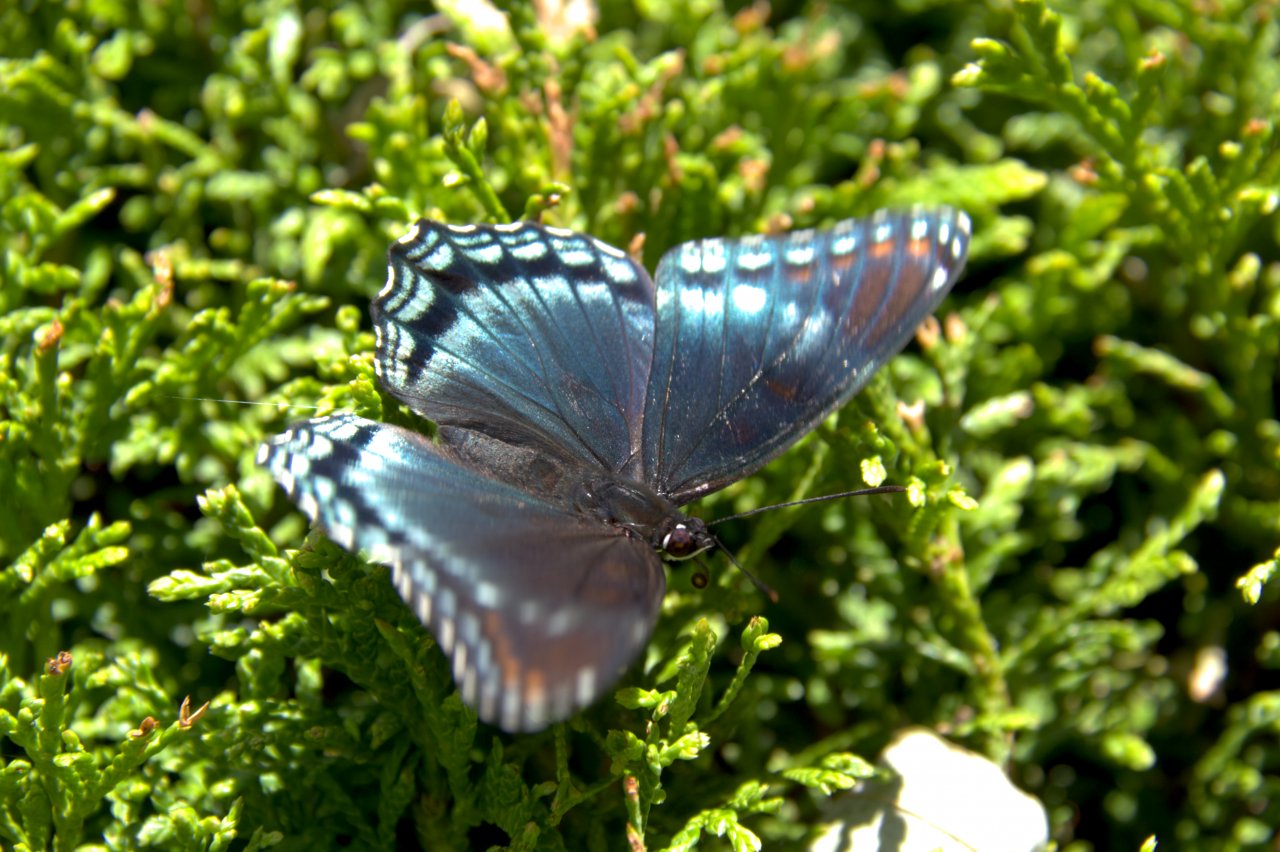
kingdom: Animalia
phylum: Arthropoda
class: Insecta
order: Lepidoptera
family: Nymphalidae
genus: Limenitis
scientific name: Limenitis
